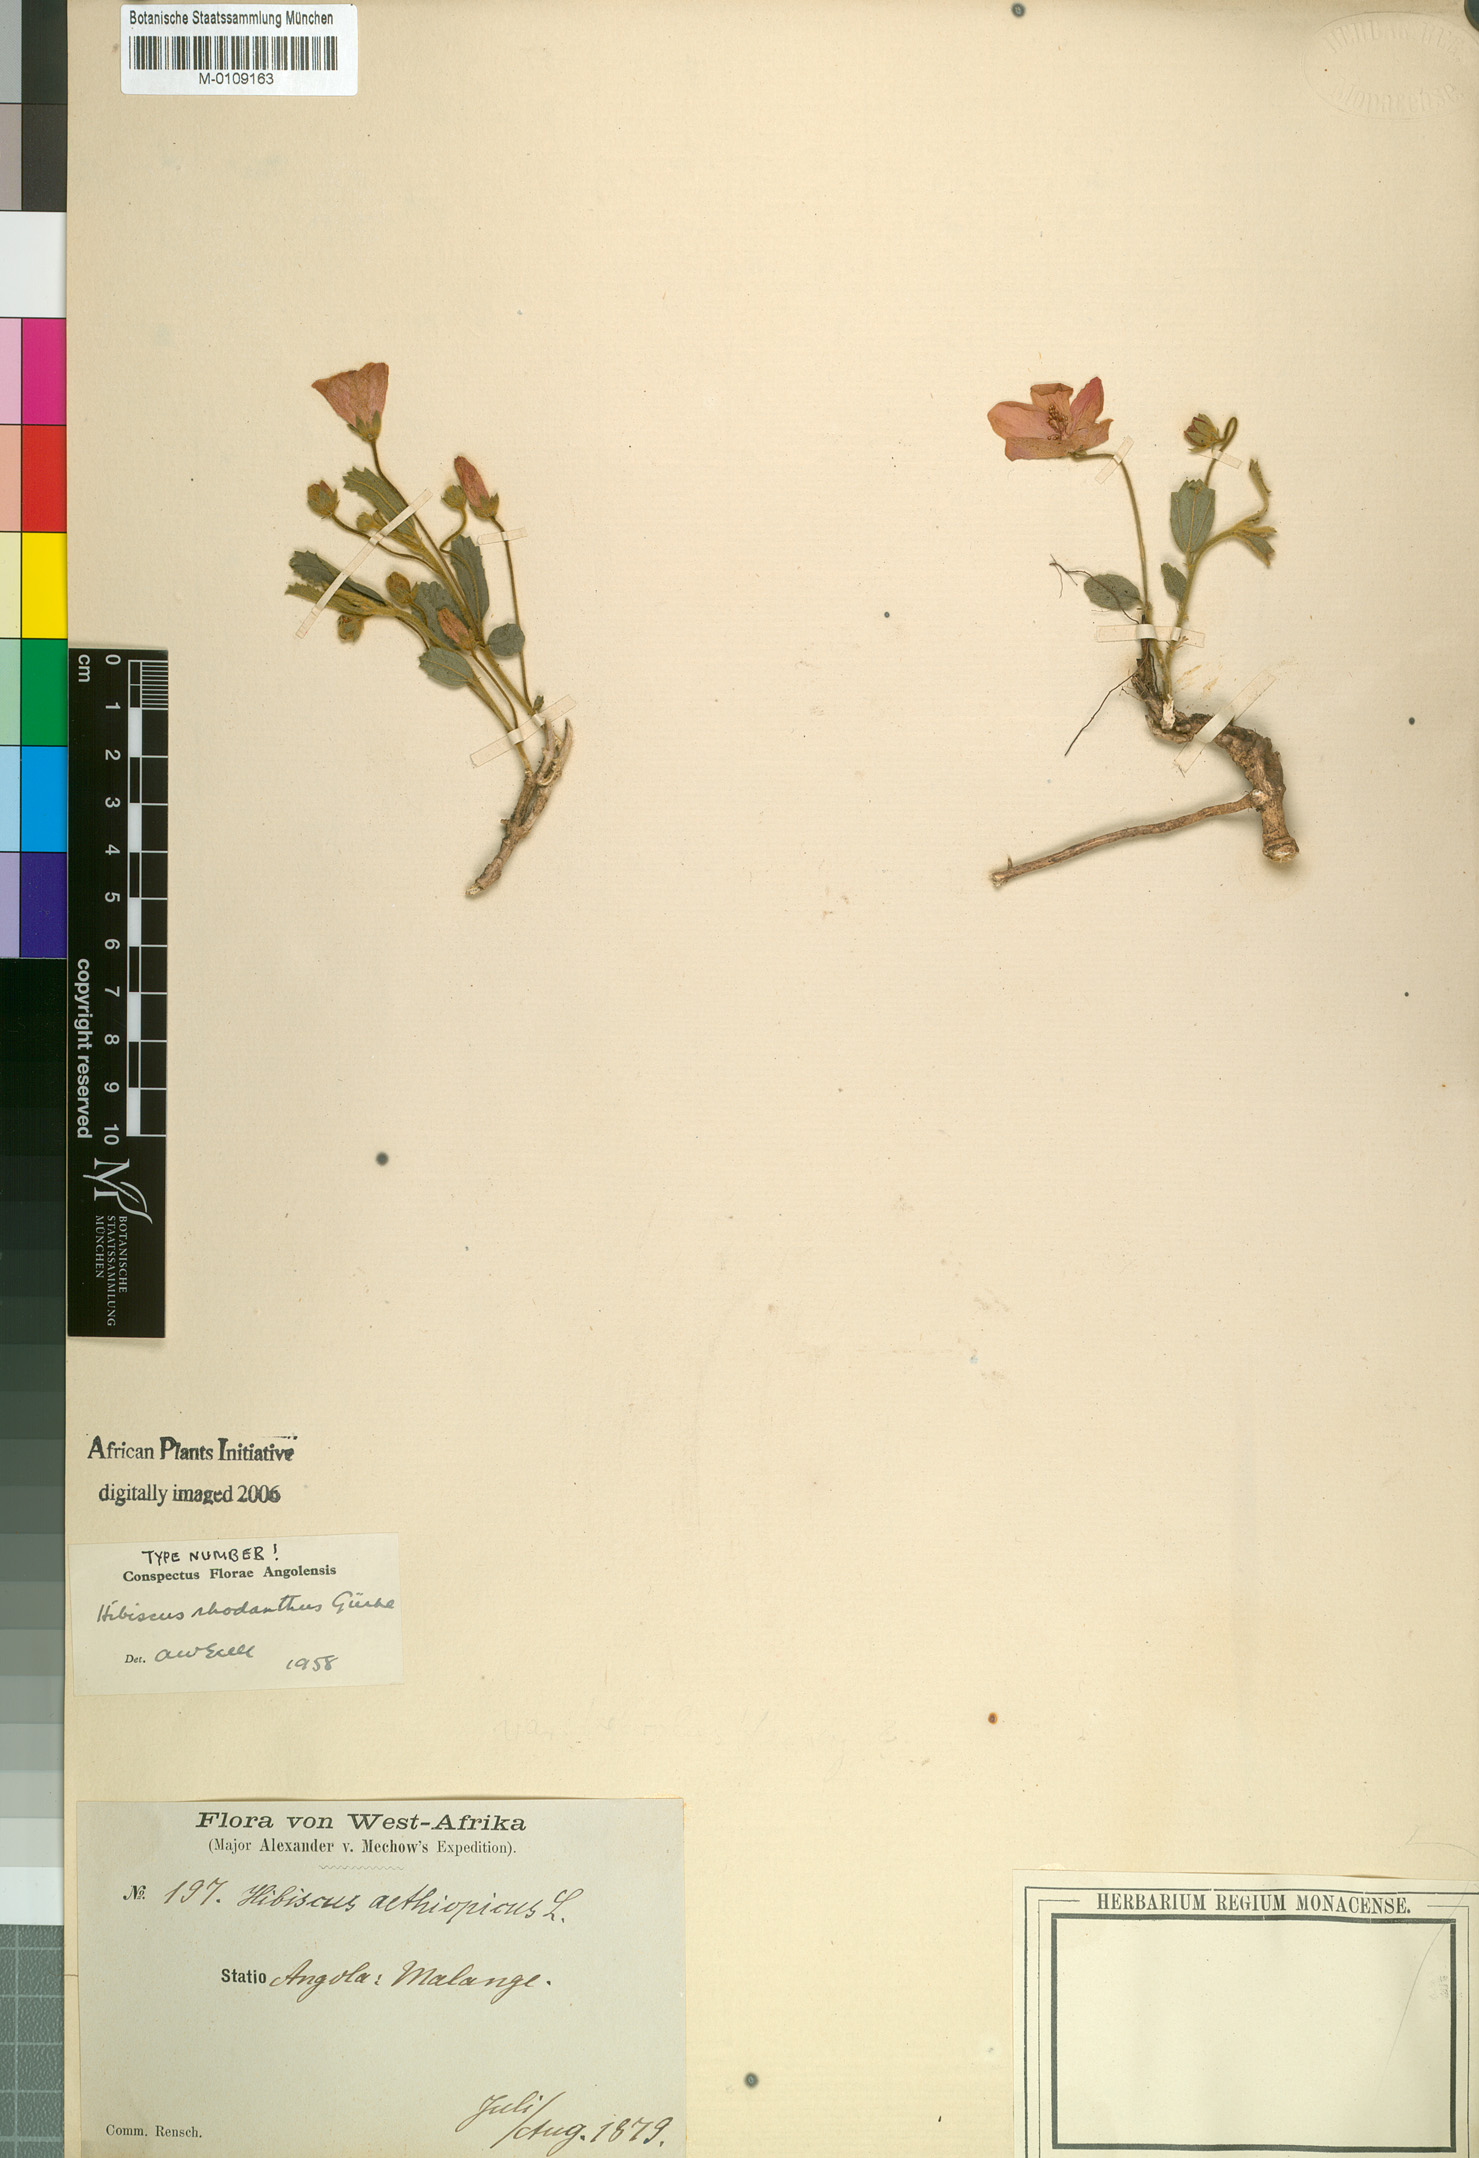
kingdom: Plantae
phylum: Tracheophyta
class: Magnoliopsida
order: Malvales
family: Malvaceae
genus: Hibiscus
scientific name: Hibiscus rhodanthus
